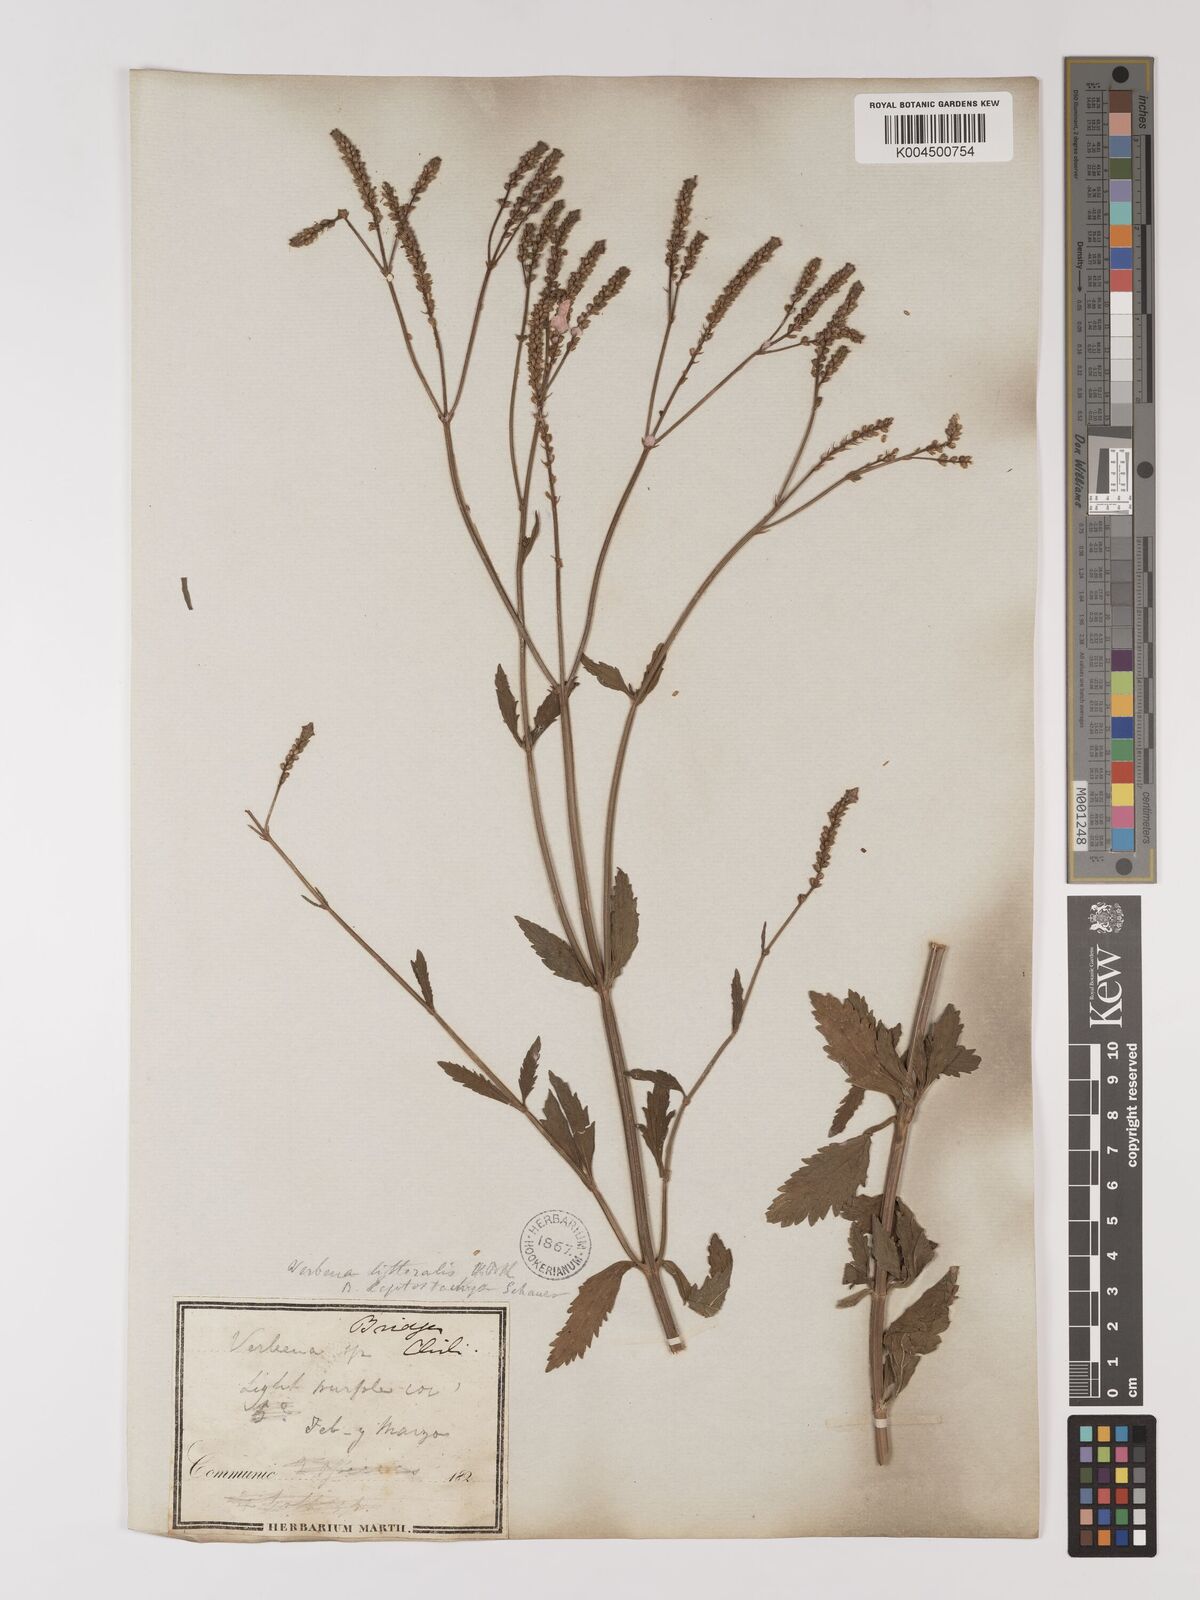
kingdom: Plantae
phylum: Tracheophyta
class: Magnoliopsida
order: Lamiales
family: Verbenaceae
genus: Verbena
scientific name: Verbena litoralis
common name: Seashore vervain
